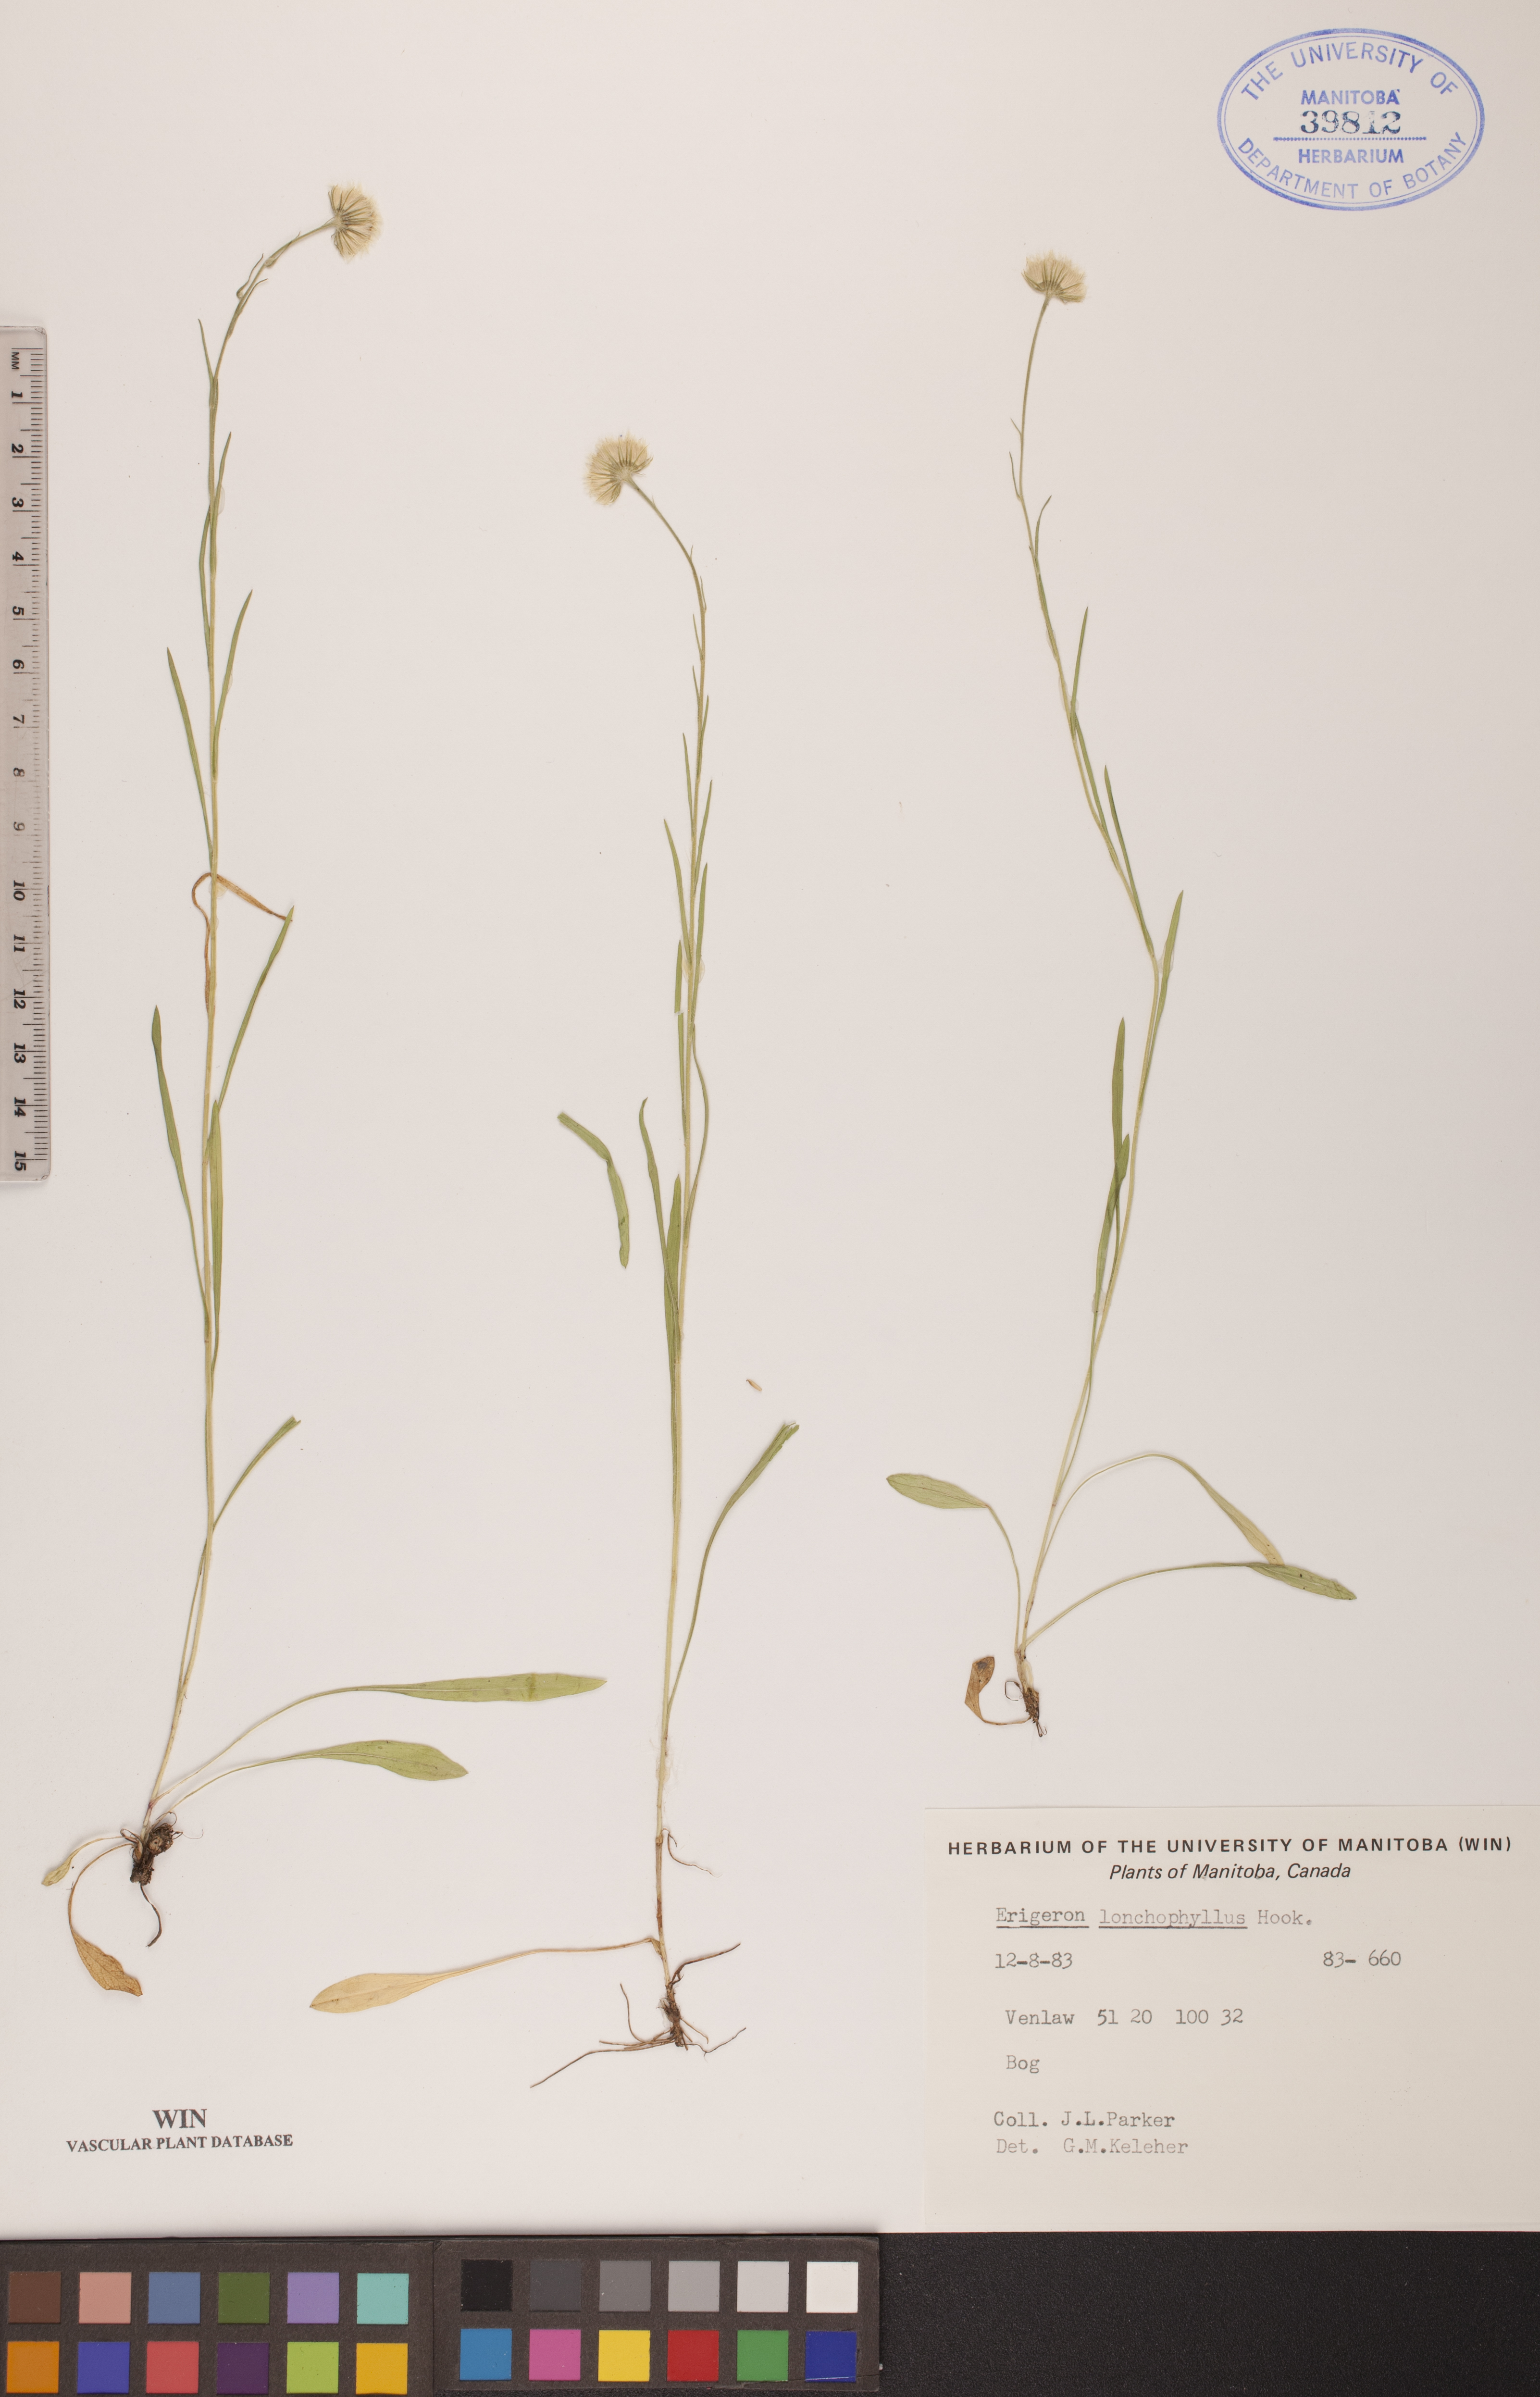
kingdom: Plantae
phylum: Tracheophyta
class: Magnoliopsida
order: Asterales
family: Asteraceae
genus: Erigeron
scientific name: Erigeron lonchophyllus
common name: Short-ray fleabane
